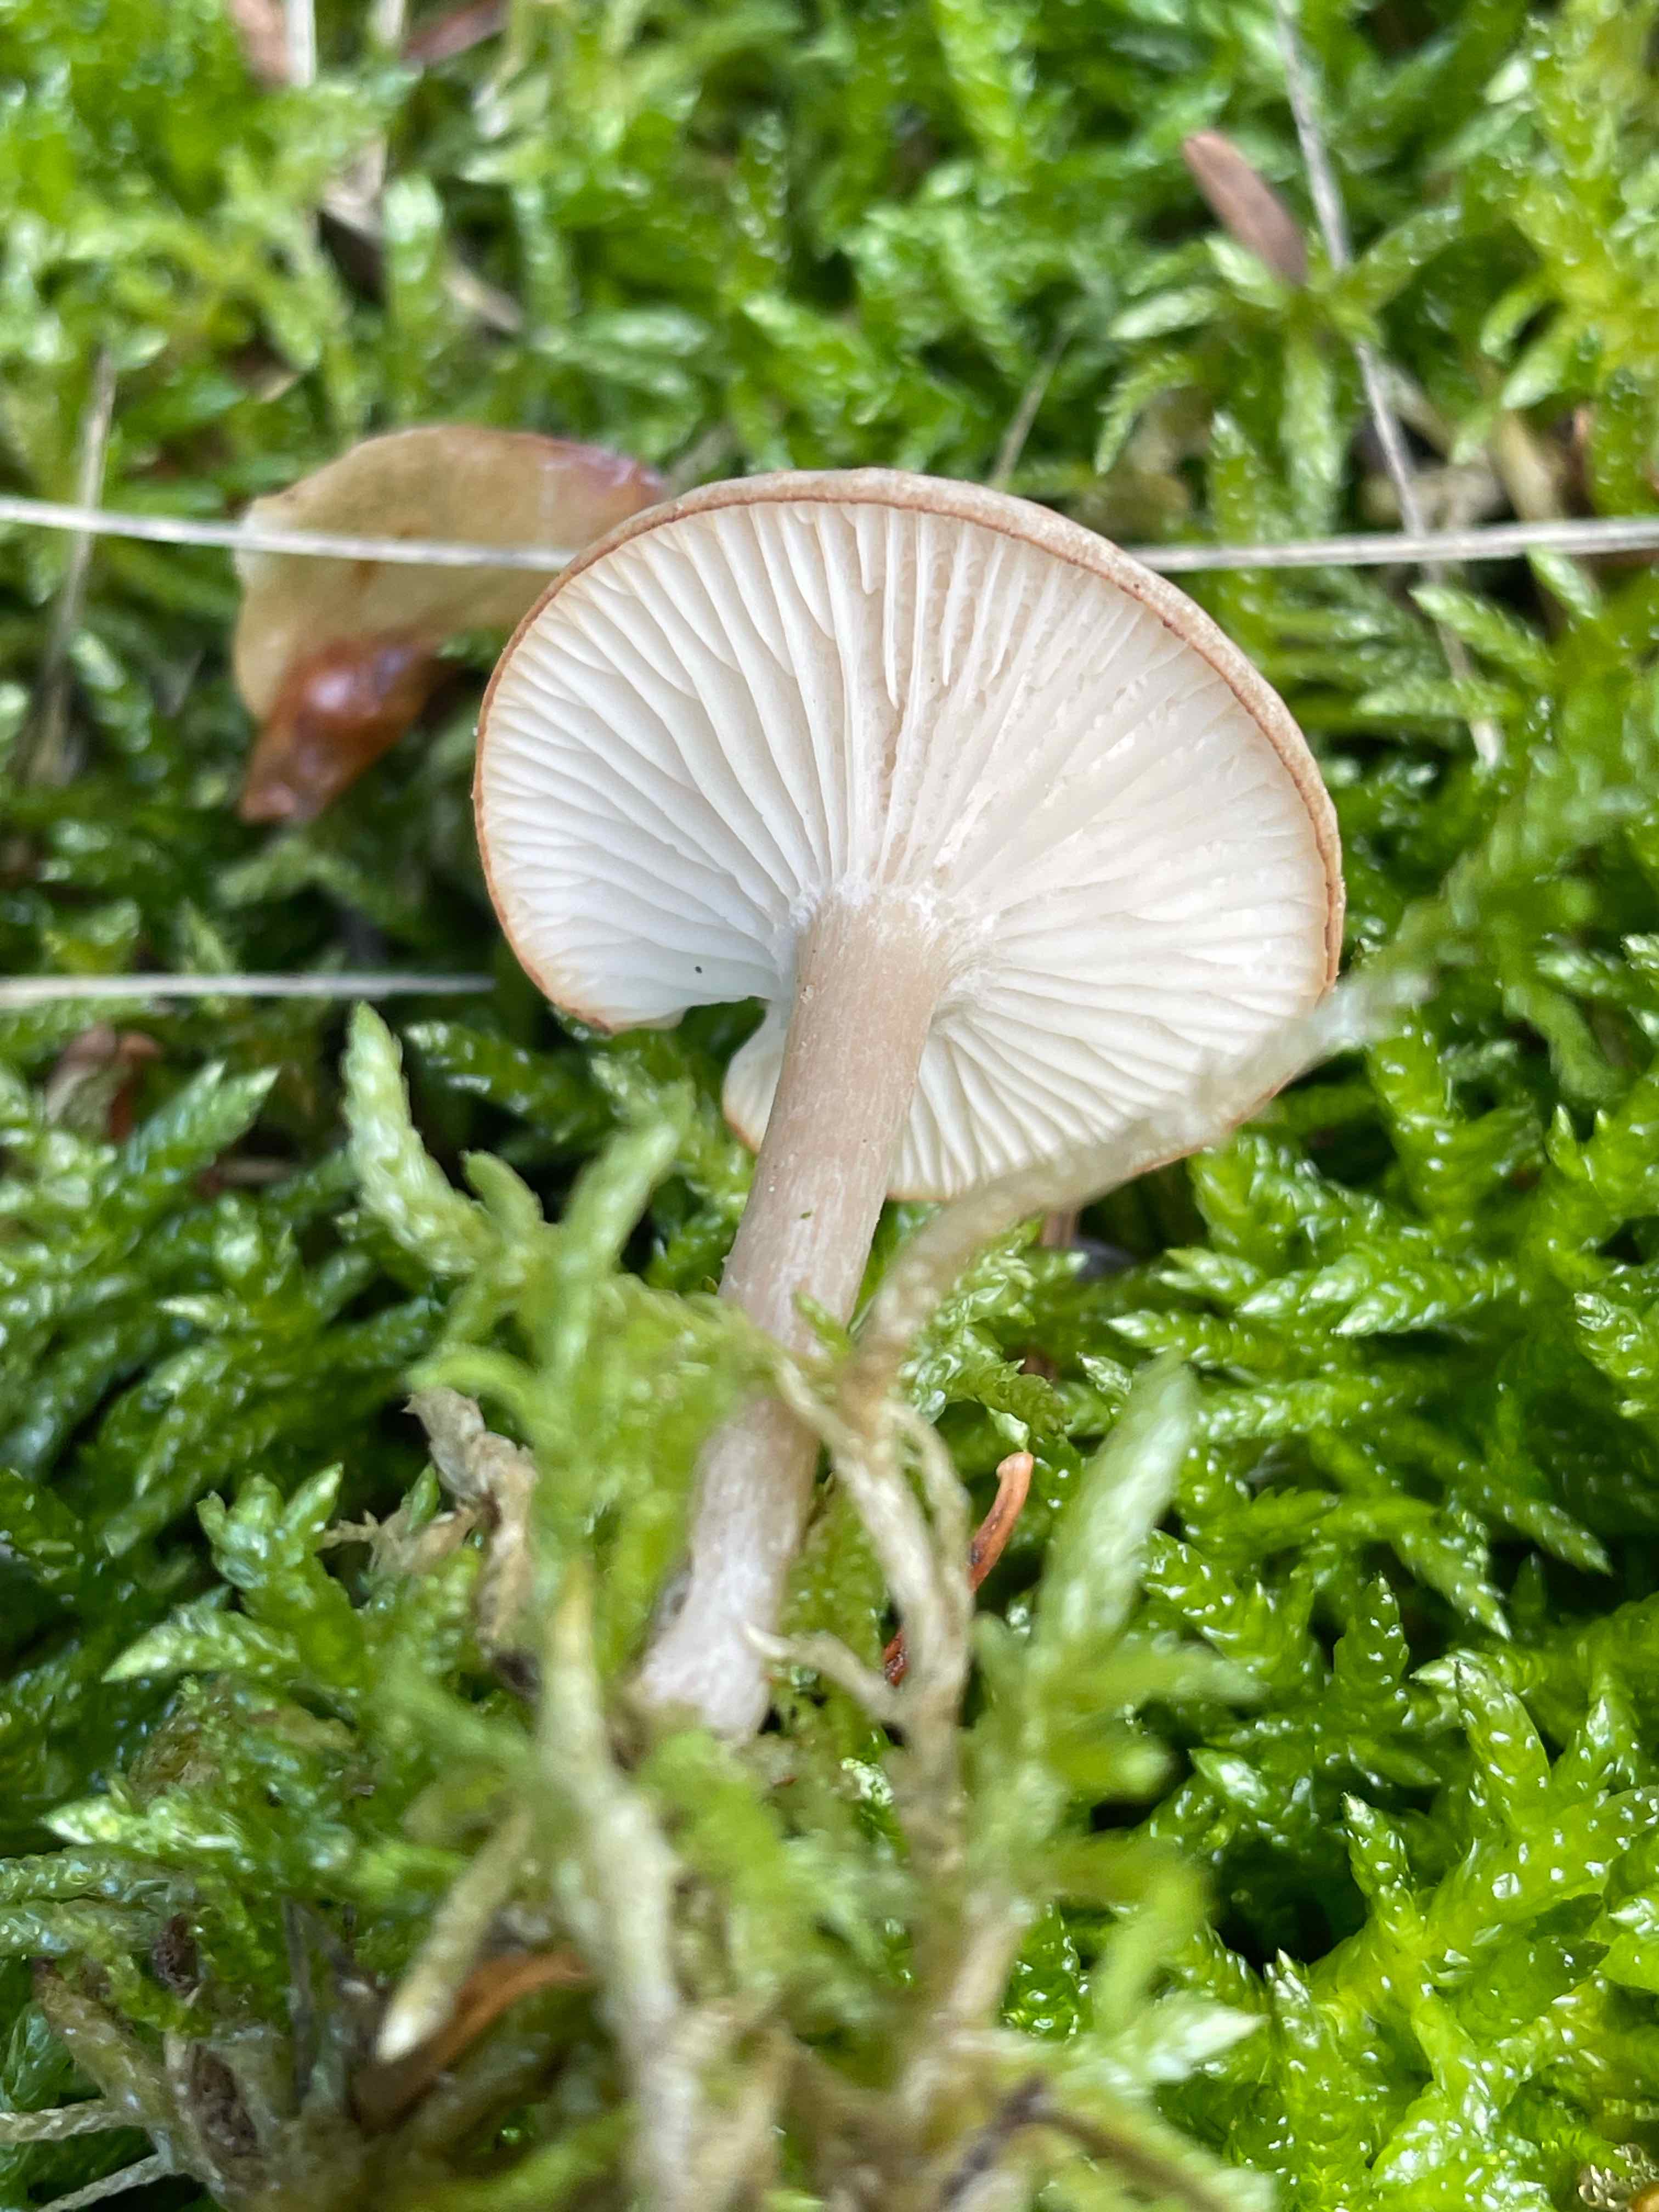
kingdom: Fungi
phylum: Basidiomycota
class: Agaricomycetes
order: Agaricales
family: Tricholomataceae
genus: Clitocybe
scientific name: Clitocybe fragrans
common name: vellugtende tragthat
